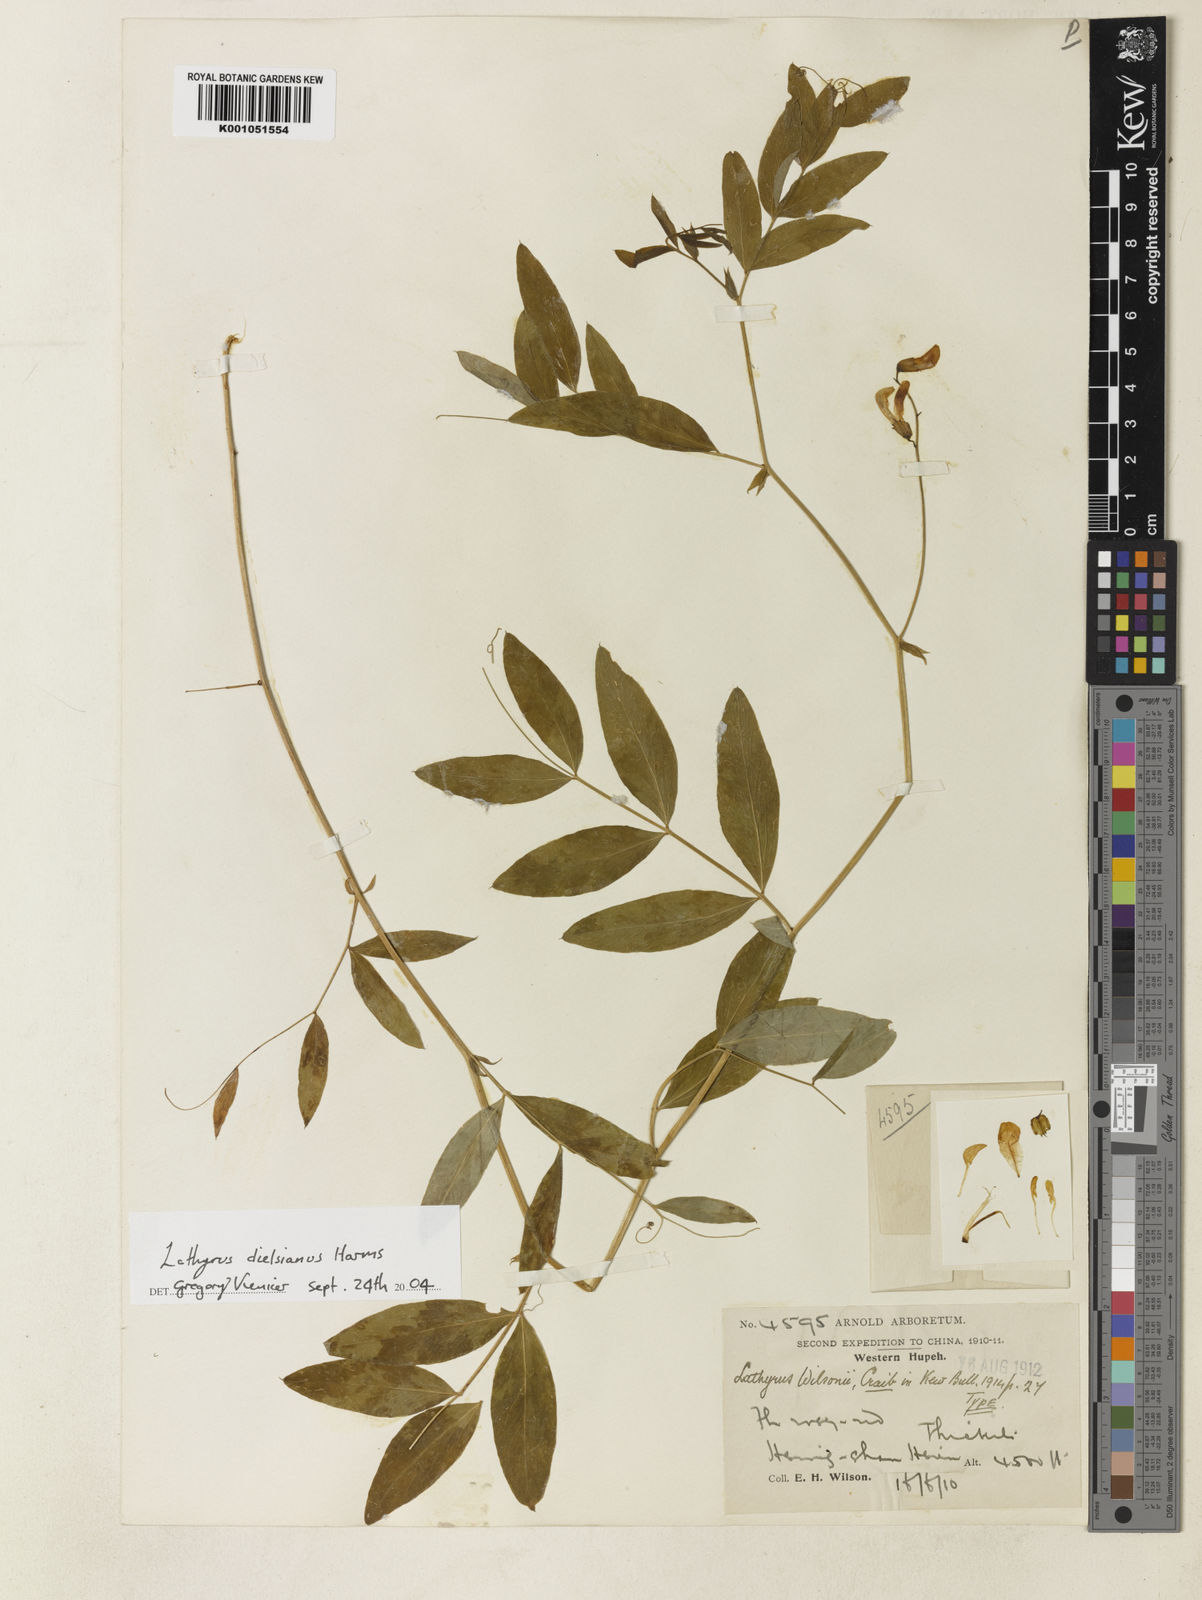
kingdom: Plantae
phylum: Tracheophyta
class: Magnoliopsida
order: Fabales
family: Fabaceae
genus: Lathyrus
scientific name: Lathyrus
